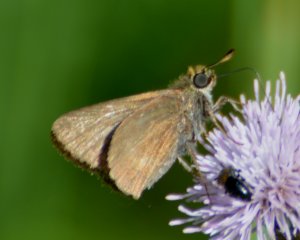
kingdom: Animalia
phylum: Arthropoda
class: Insecta
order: Lepidoptera
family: Hesperiidae
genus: Euphyes
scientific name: Euphyes vestris
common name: Dun Skipper
